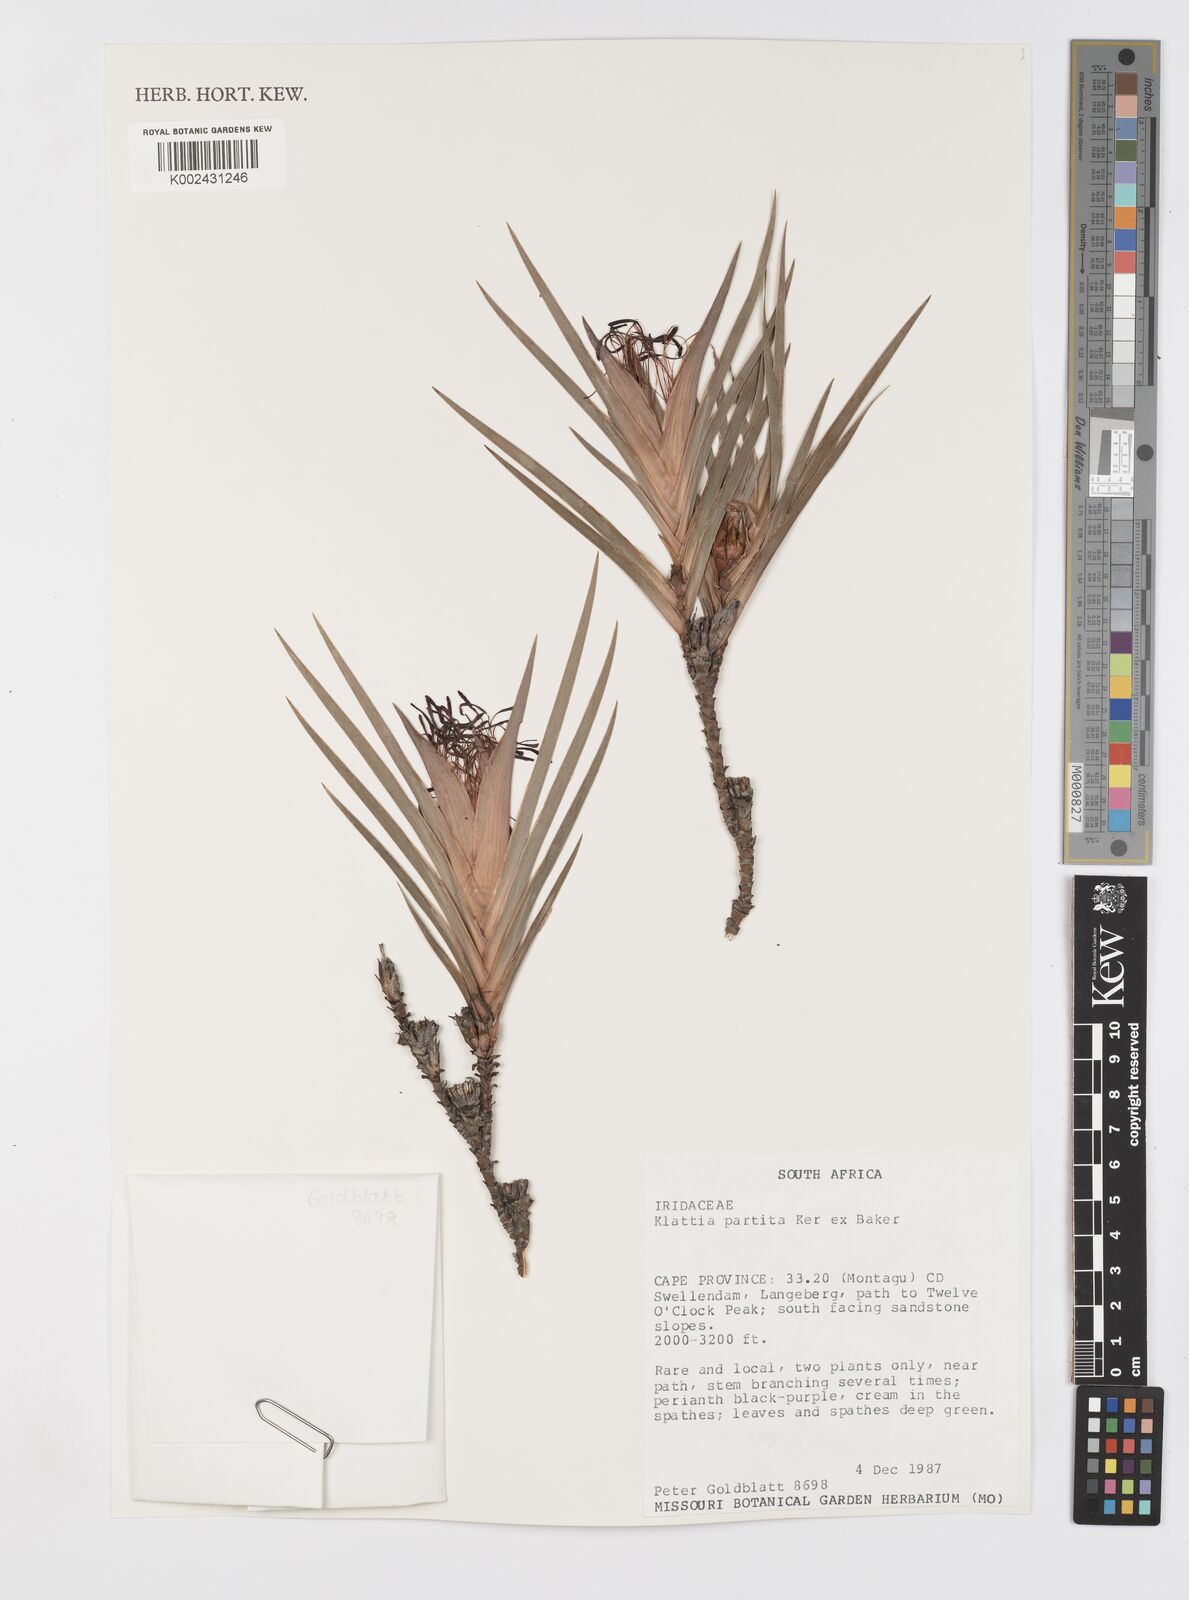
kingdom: Plantae
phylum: Tracheophyta
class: Liliopsida
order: Asparagales
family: Iridaceae
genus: Klattia
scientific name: Klattia partita
